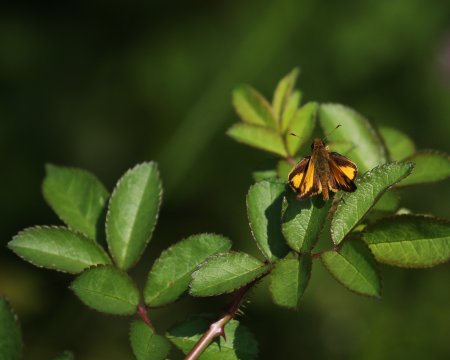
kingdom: Animalia
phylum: Arthropoda
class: Insecta
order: Lepidoptera
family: Hesperiidae
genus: Lon
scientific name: Lon zabulon
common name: Zabulon Skipper
